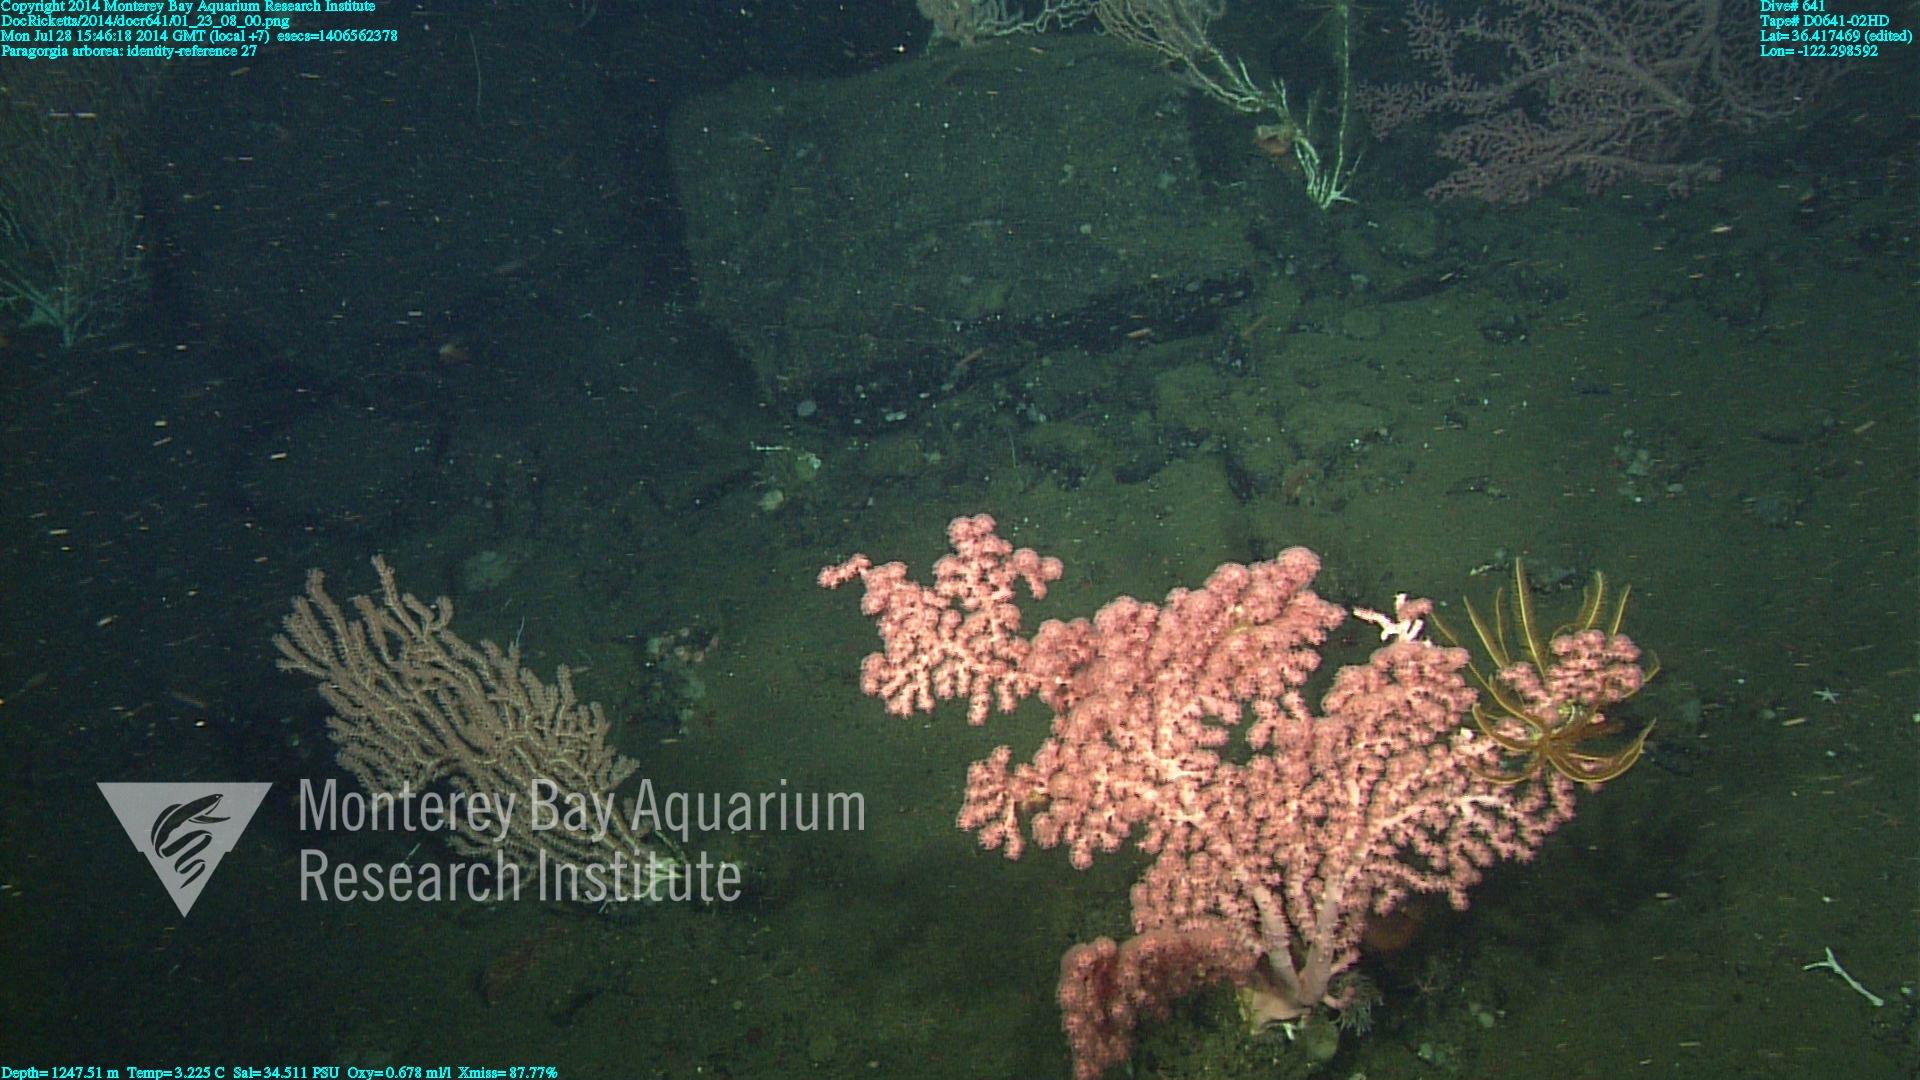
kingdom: Animalia
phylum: Cnidaria
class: Anthozoa
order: Scleralcyonacea
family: Coralliidae
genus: Paragorgia
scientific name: Paragorgia arborea
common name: Bubble gum coral
